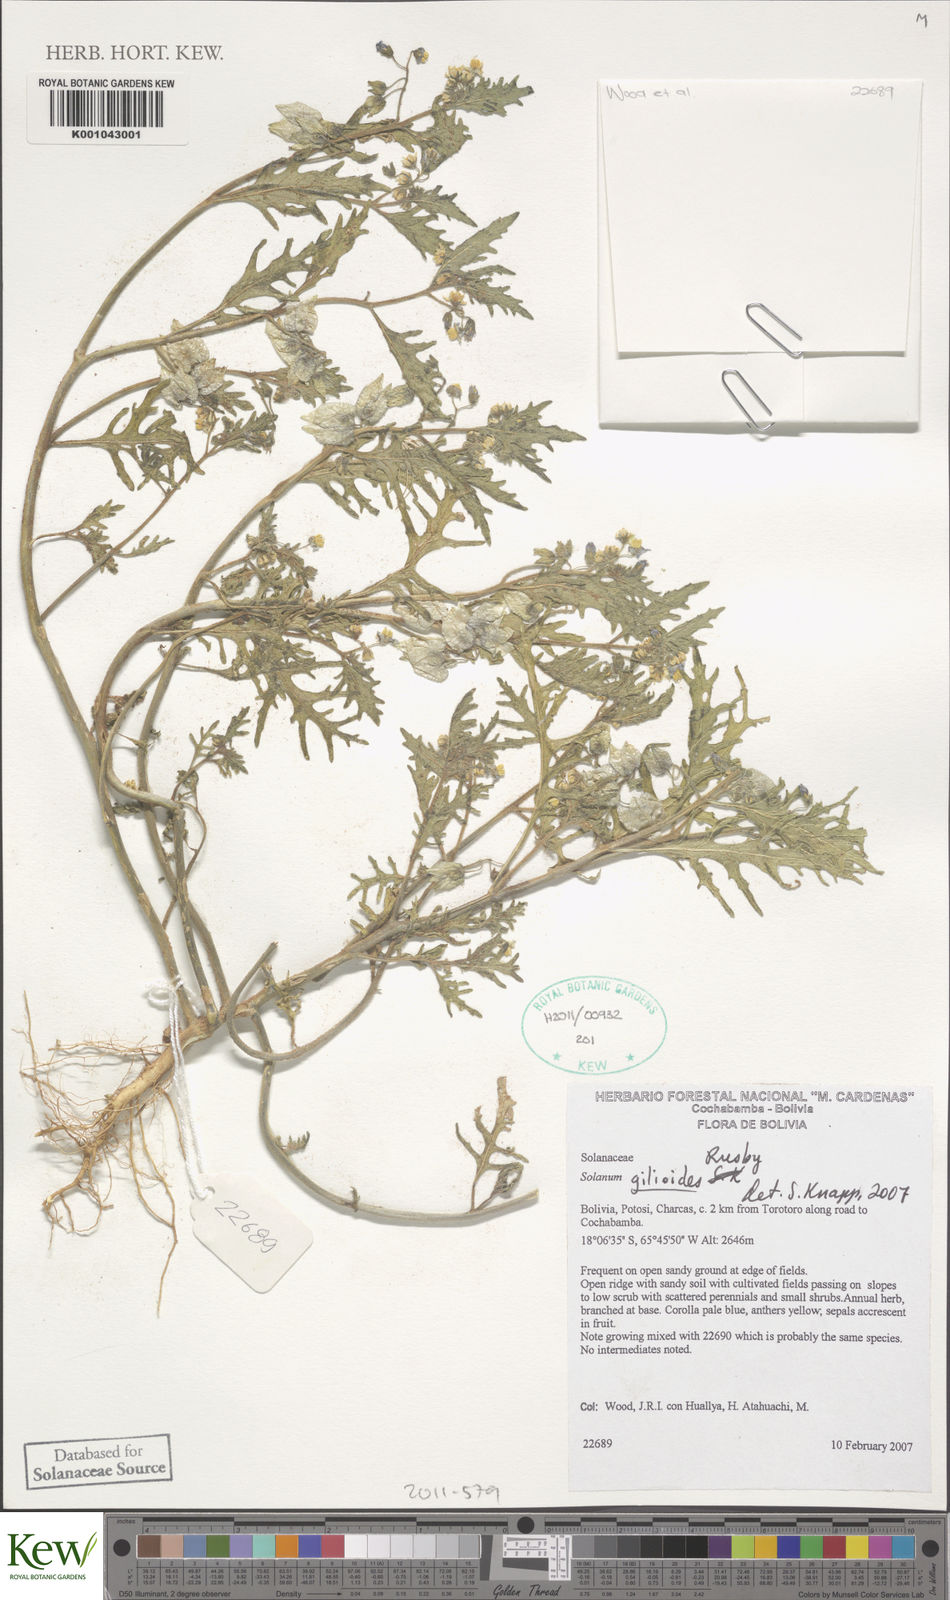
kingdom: Plantae
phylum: Tracheophyta
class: Magnoliopsida
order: Solanales
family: Solanaceae
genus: Solanum
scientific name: Solanum gilioides
